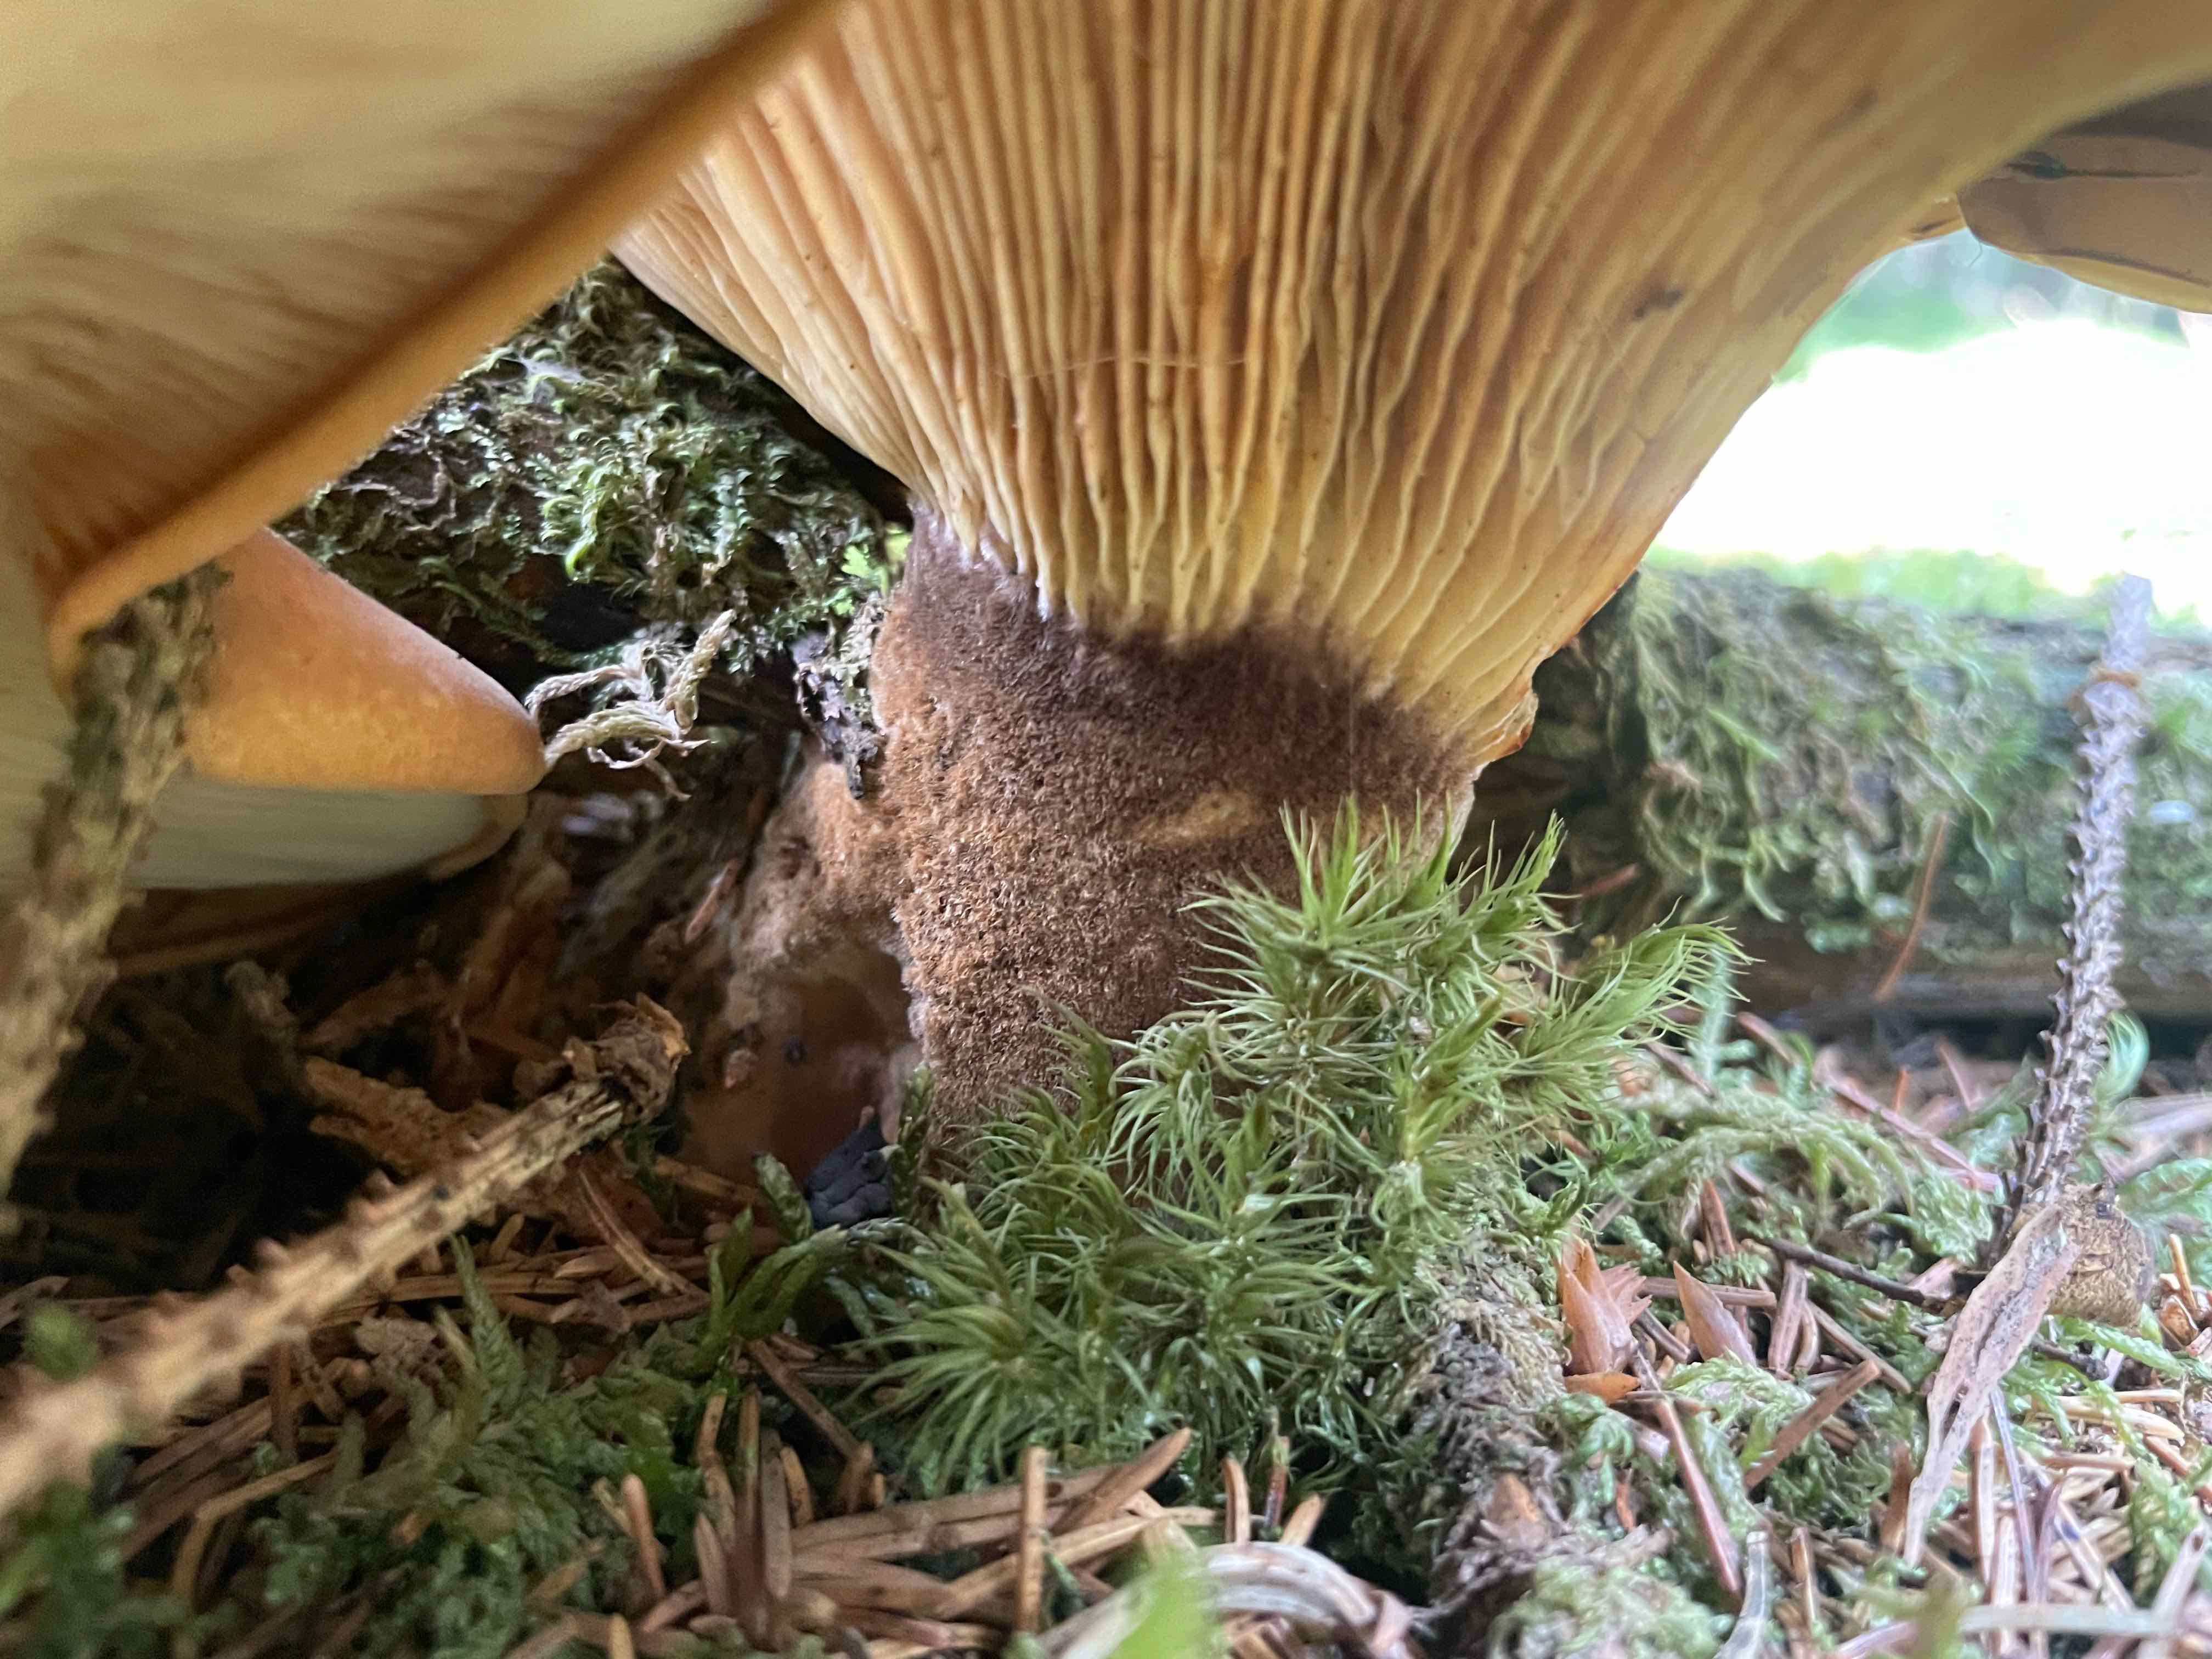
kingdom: Fungi
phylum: Basidiomycota
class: Agaricomycetes
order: Boletales
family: Tapinellaceae
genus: Tapinella
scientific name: Tapinella atrotomentosa
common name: sortfiltet viftesvamp
